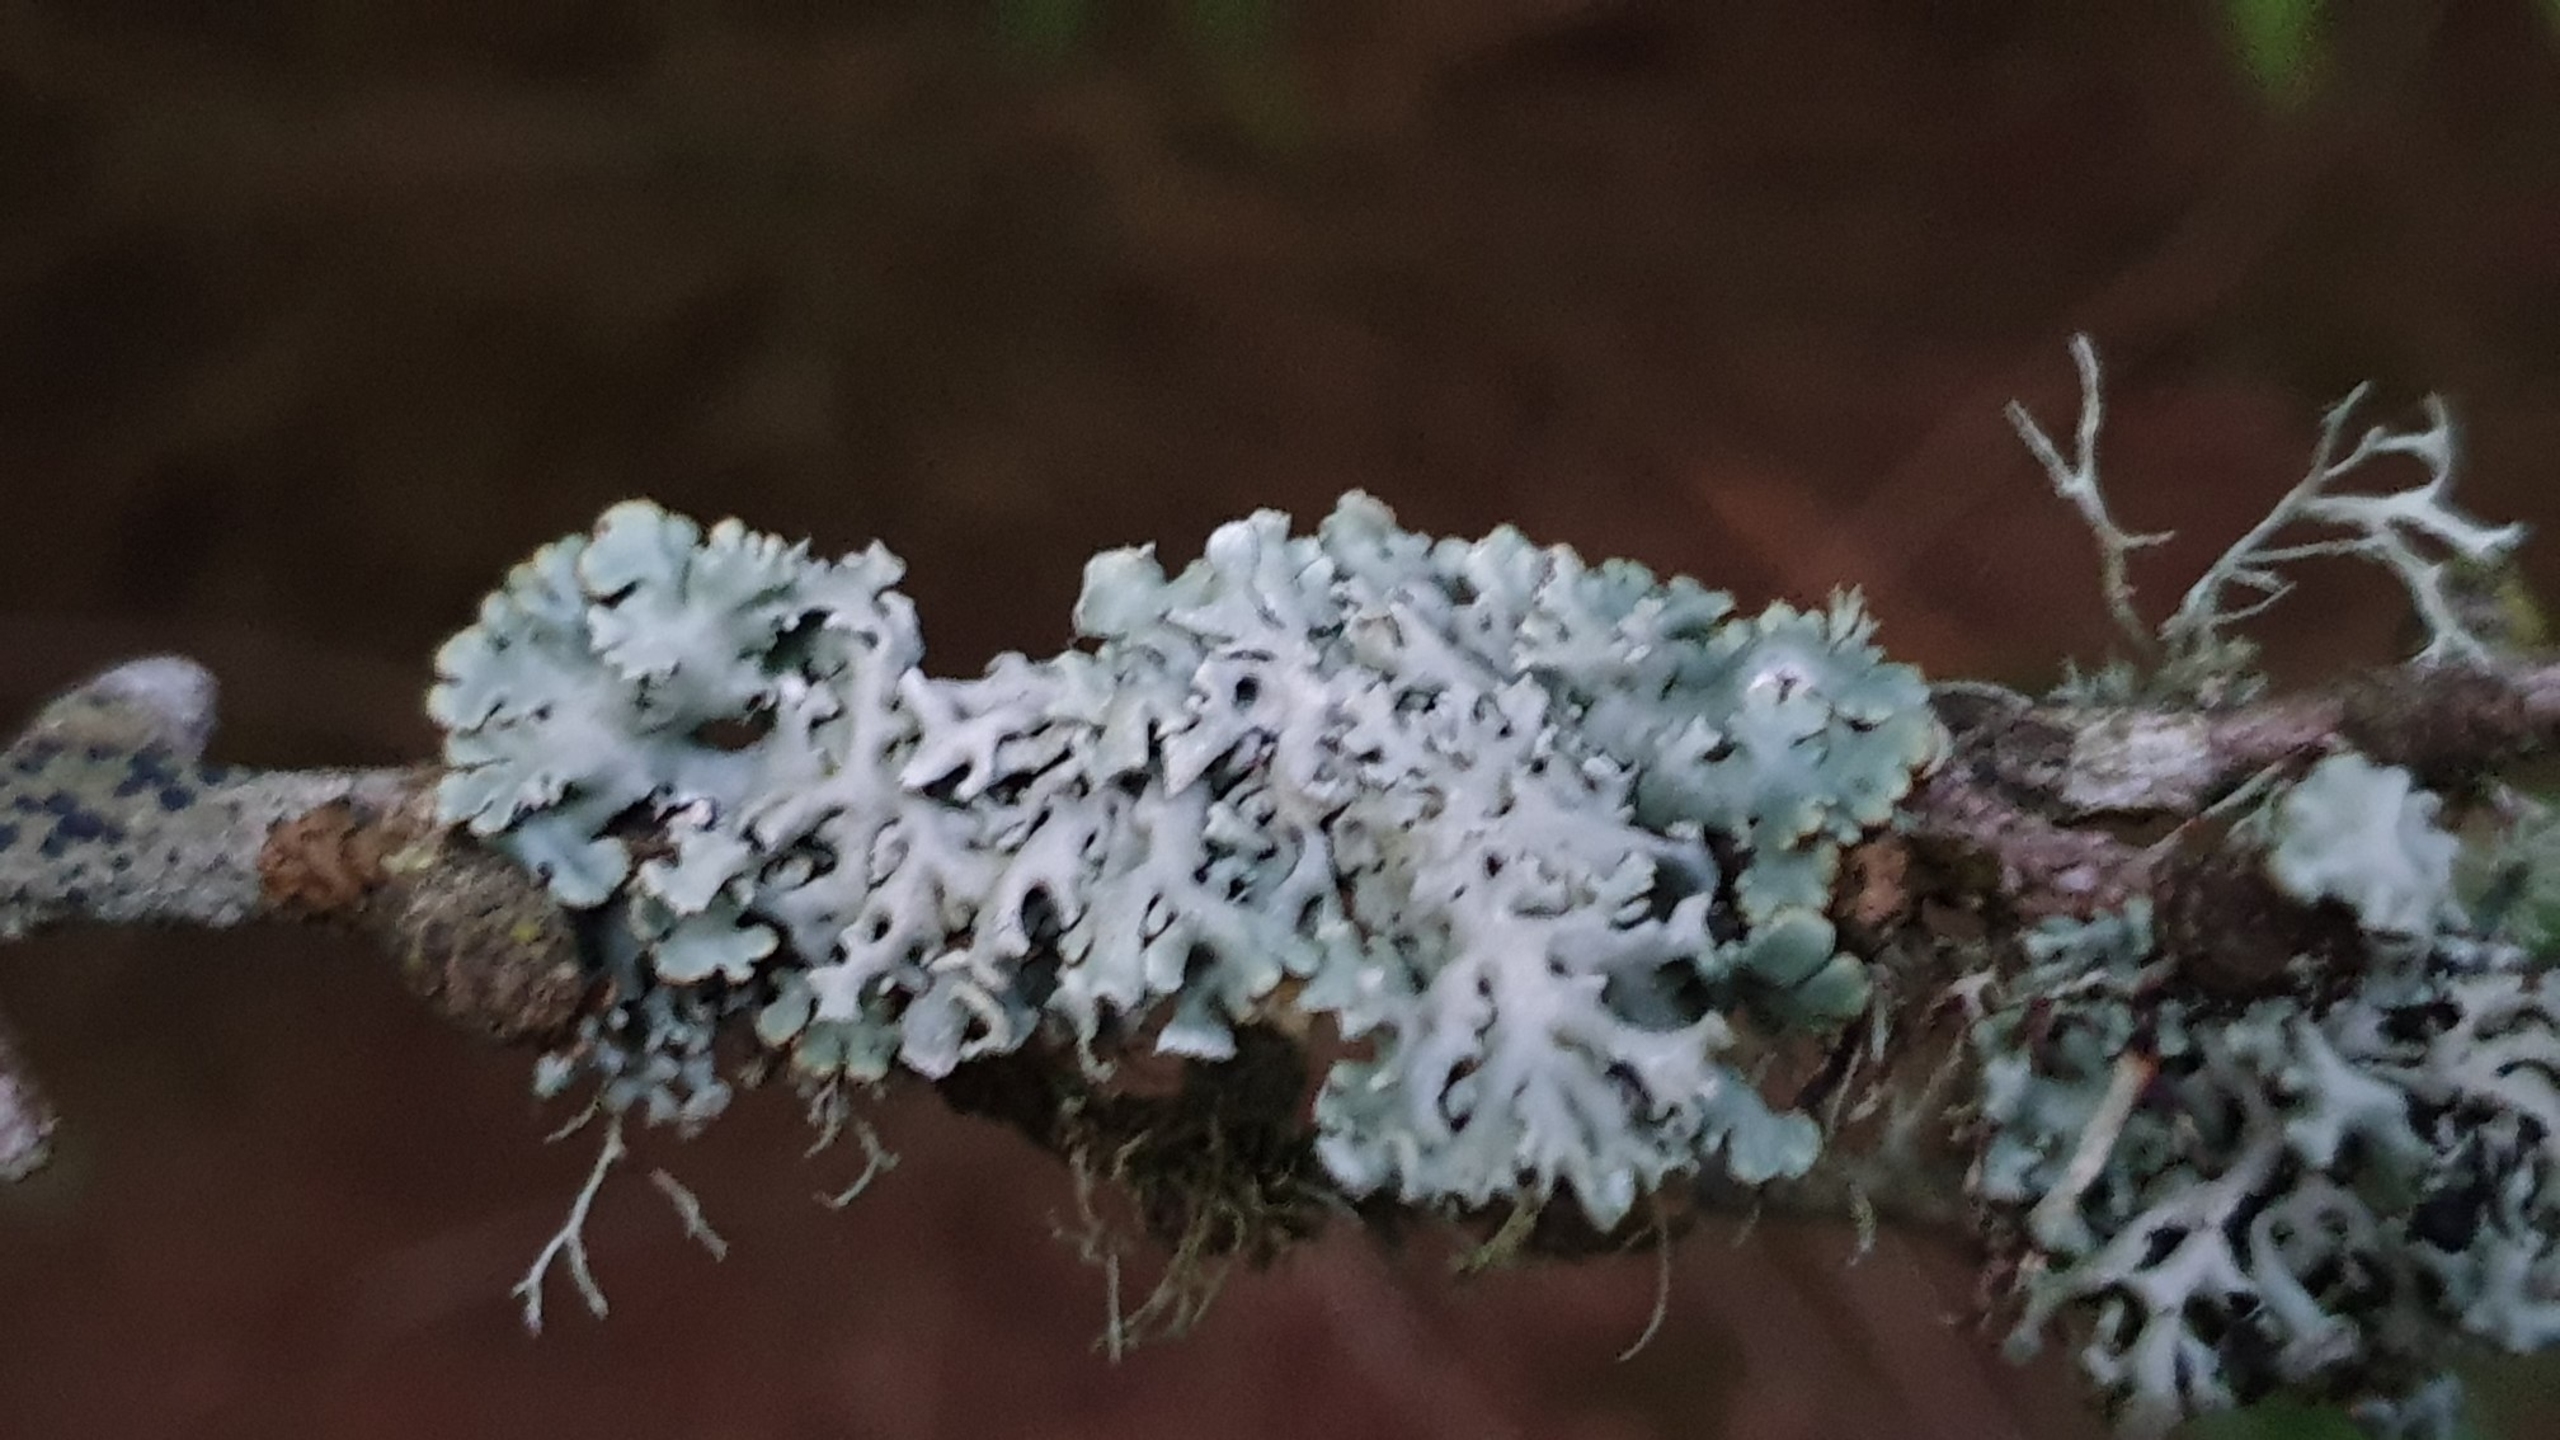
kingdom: Fungi
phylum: Ascomycota
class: Lecanoromycetes
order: Lecanorales
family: Parmeliaceae
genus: Hypogymnia
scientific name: Hypogymnia physodes
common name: Almindelig kvistlav
